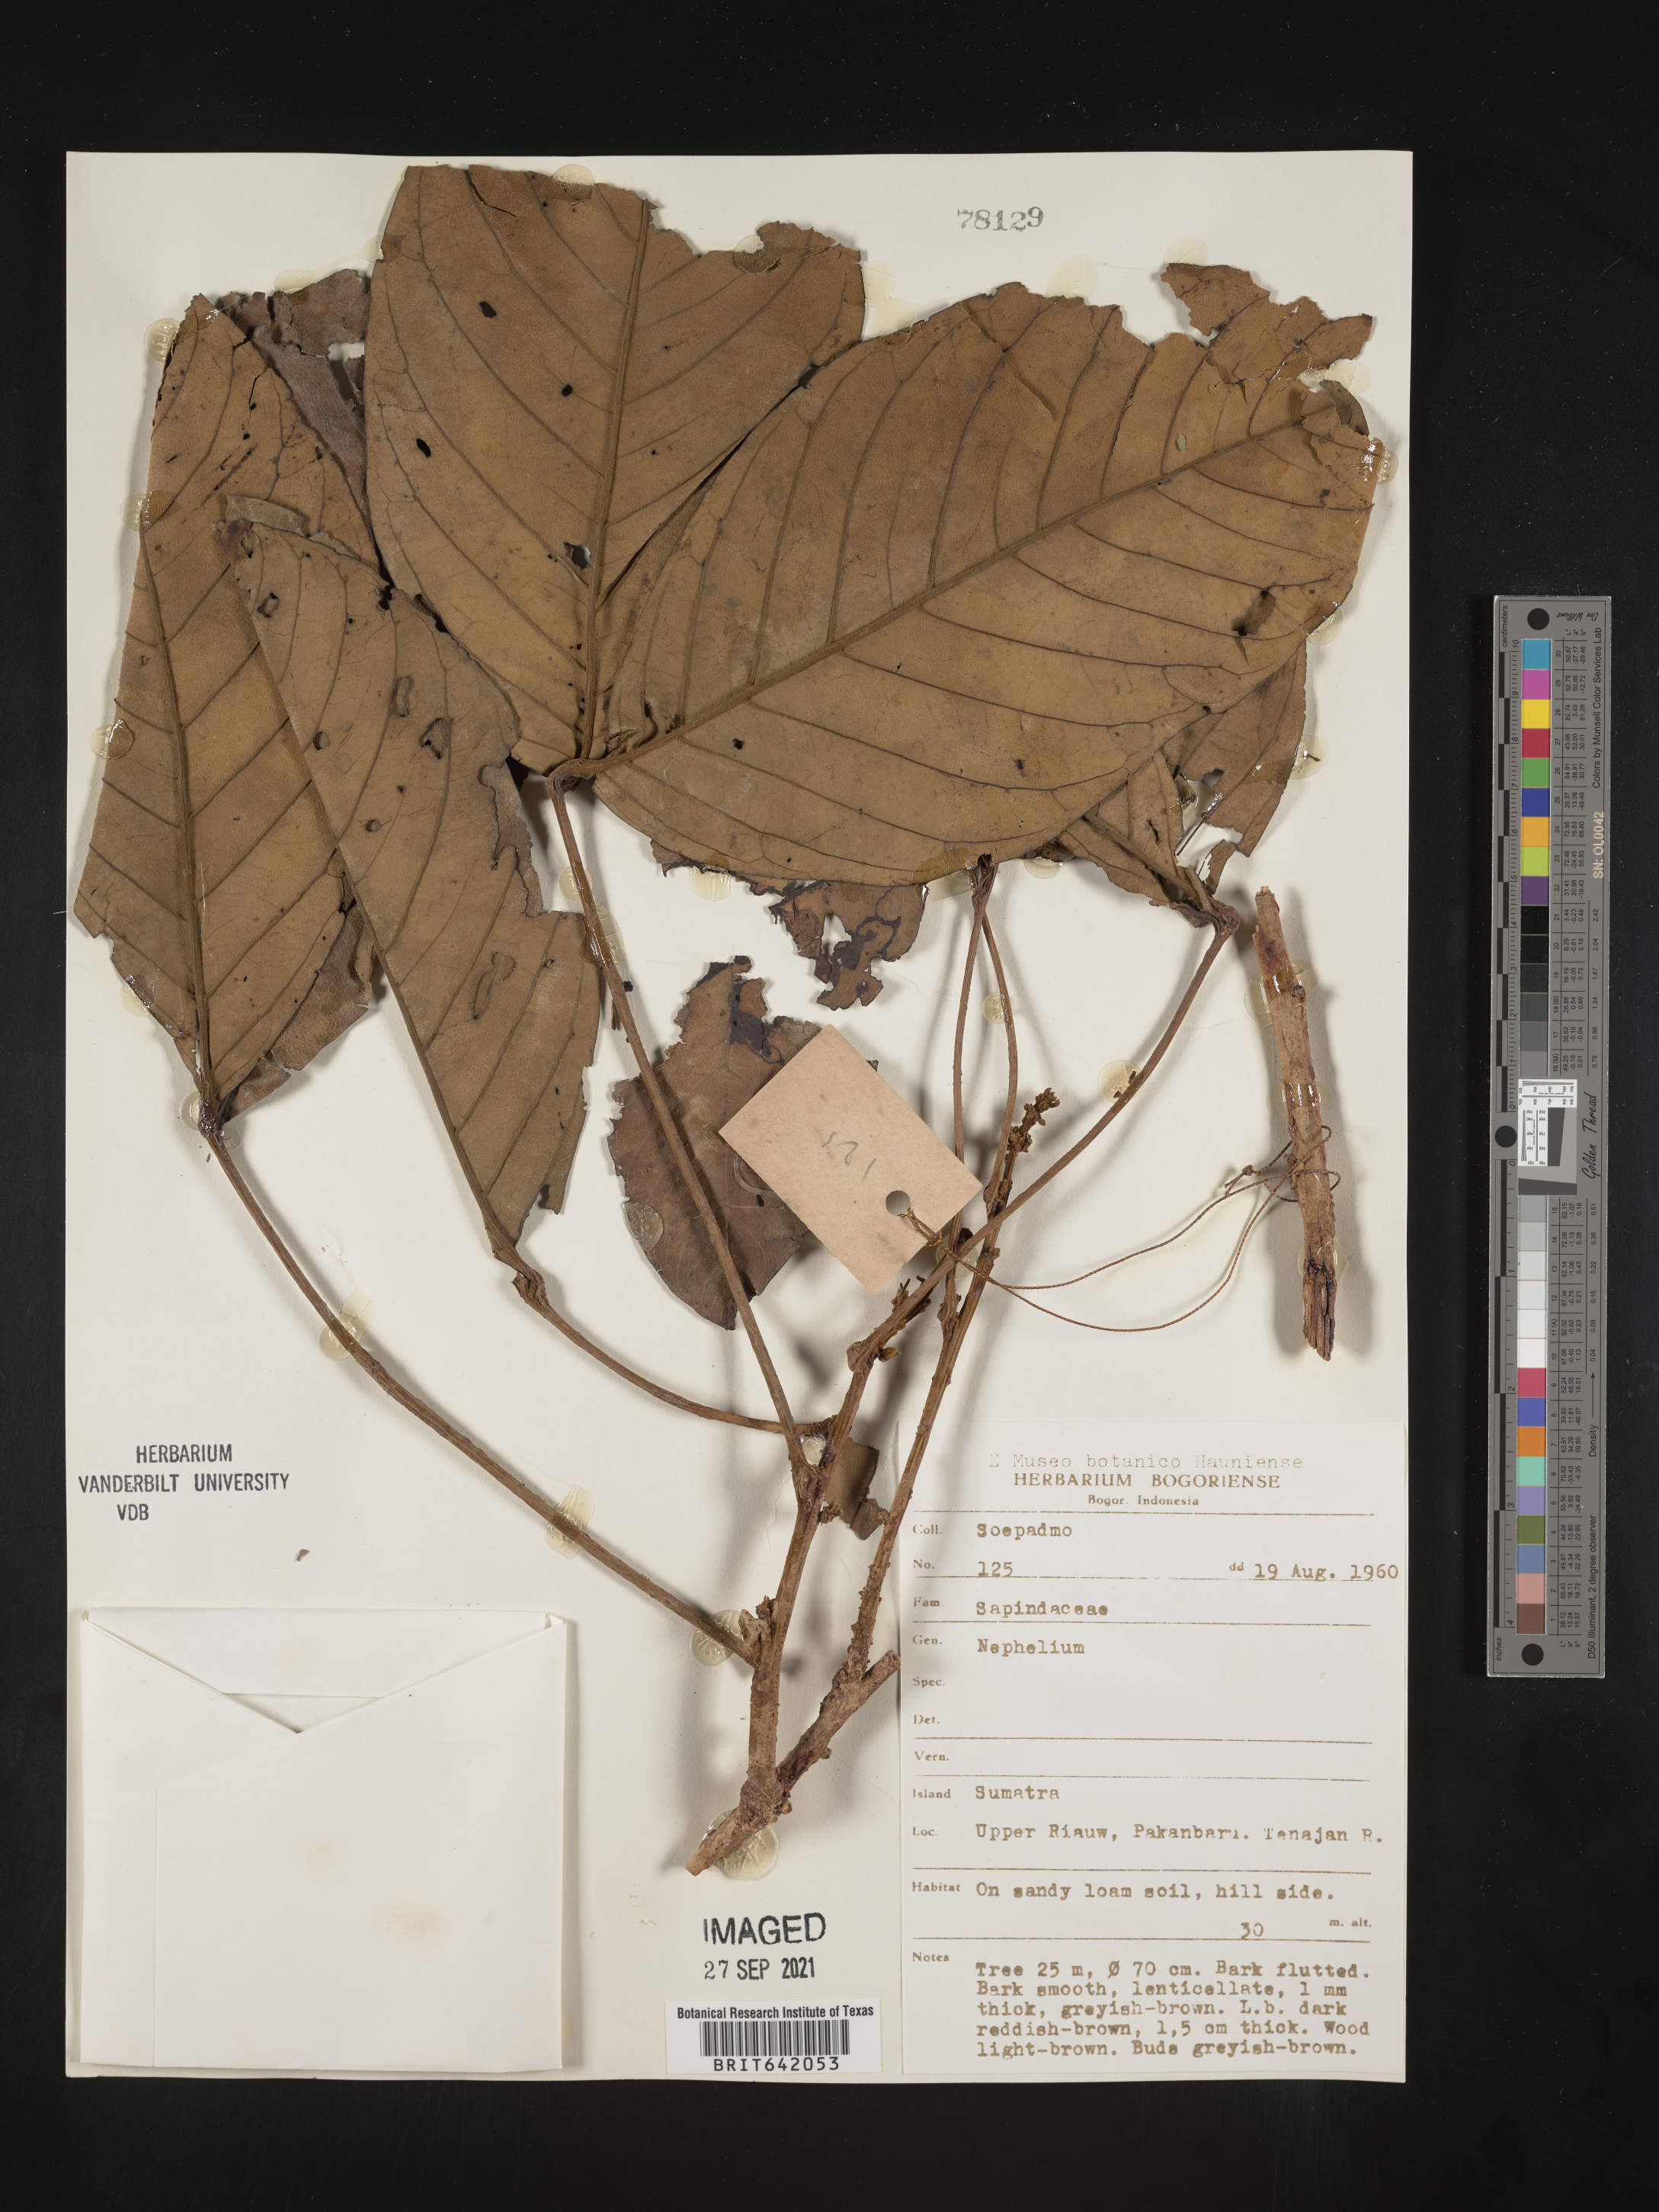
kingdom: Plantae
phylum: Tracheophyta
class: Magnoliopsida
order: Sapindales
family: Sapindaceae
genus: Nephelium
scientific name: Nephelium
